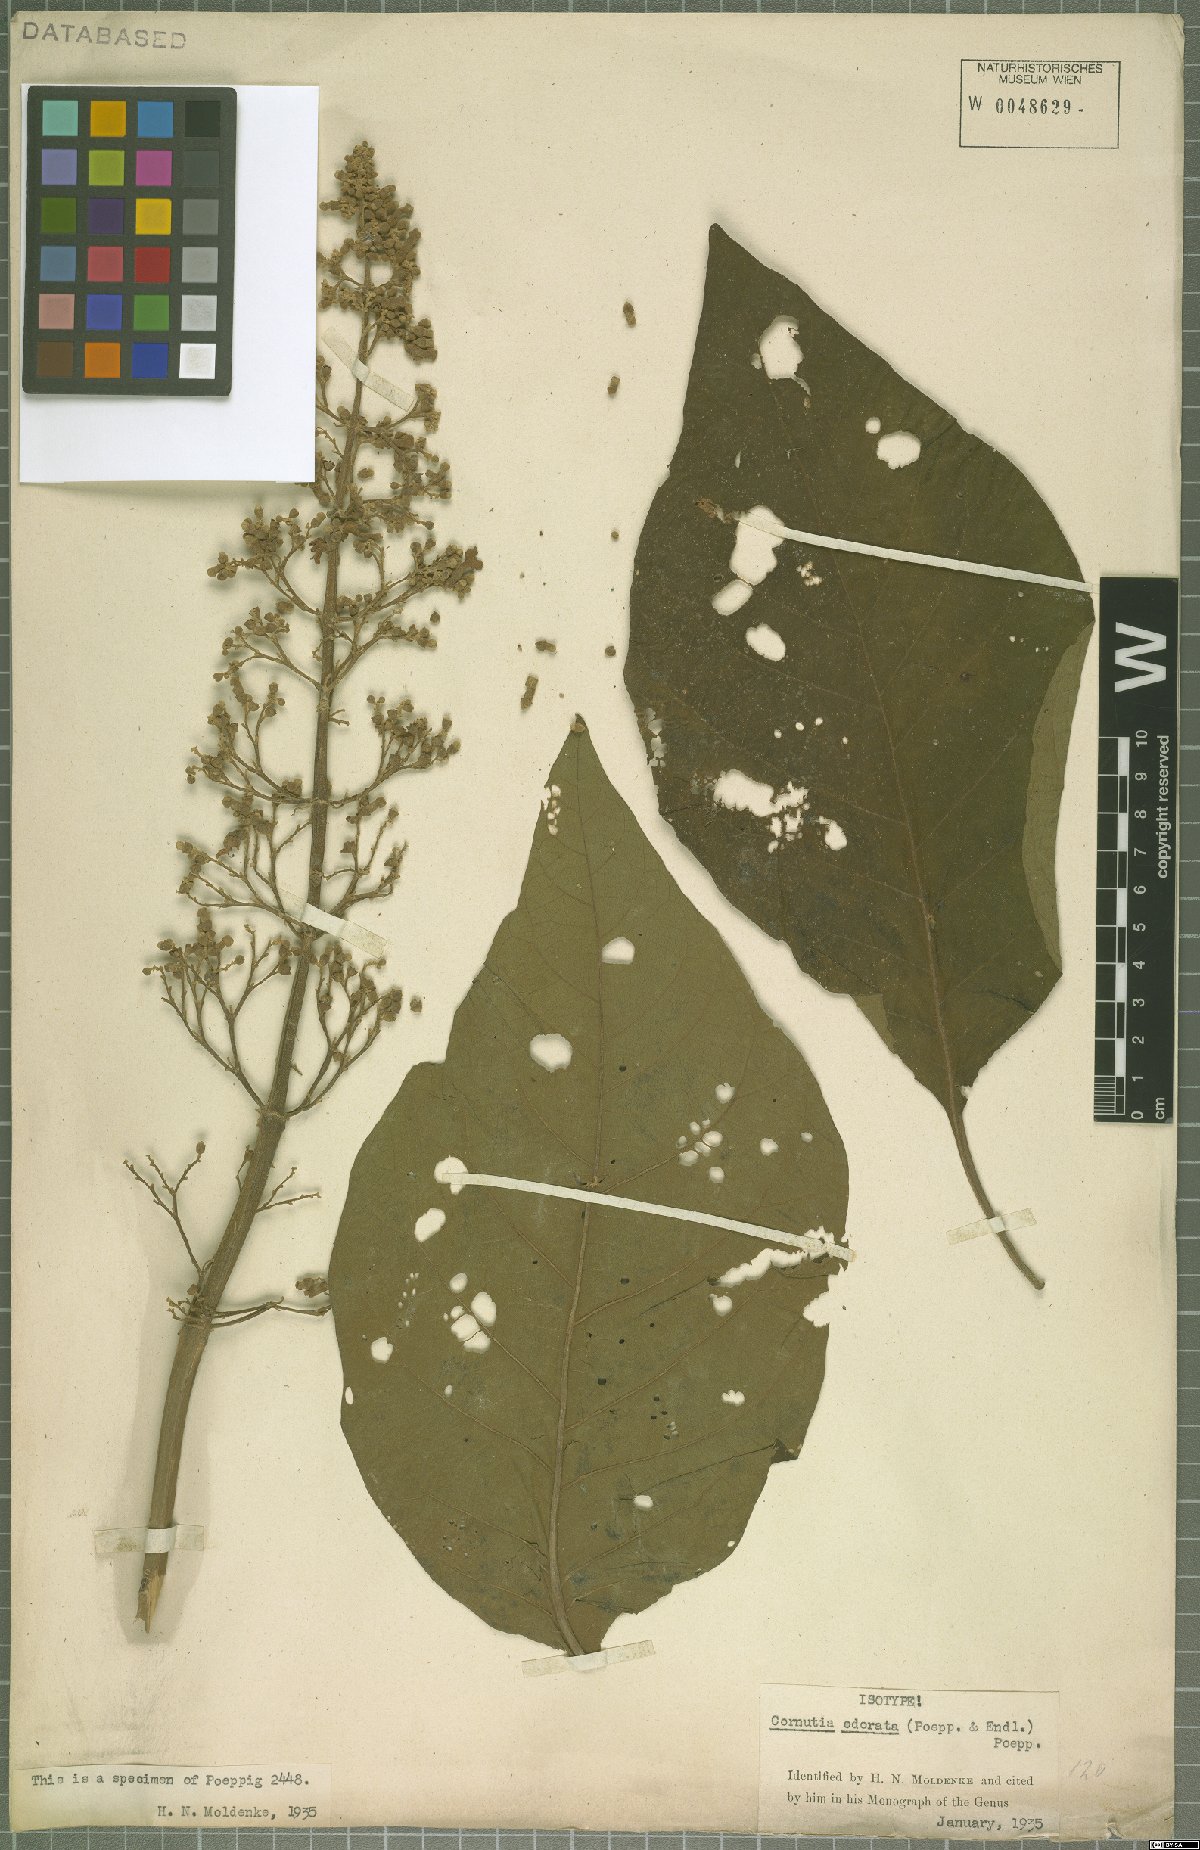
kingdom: Plantae
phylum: Tracheophyta
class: Magnoliopsida
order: Lamiales
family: Lamiaceae
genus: Cornutia
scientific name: Cornutia odorata
